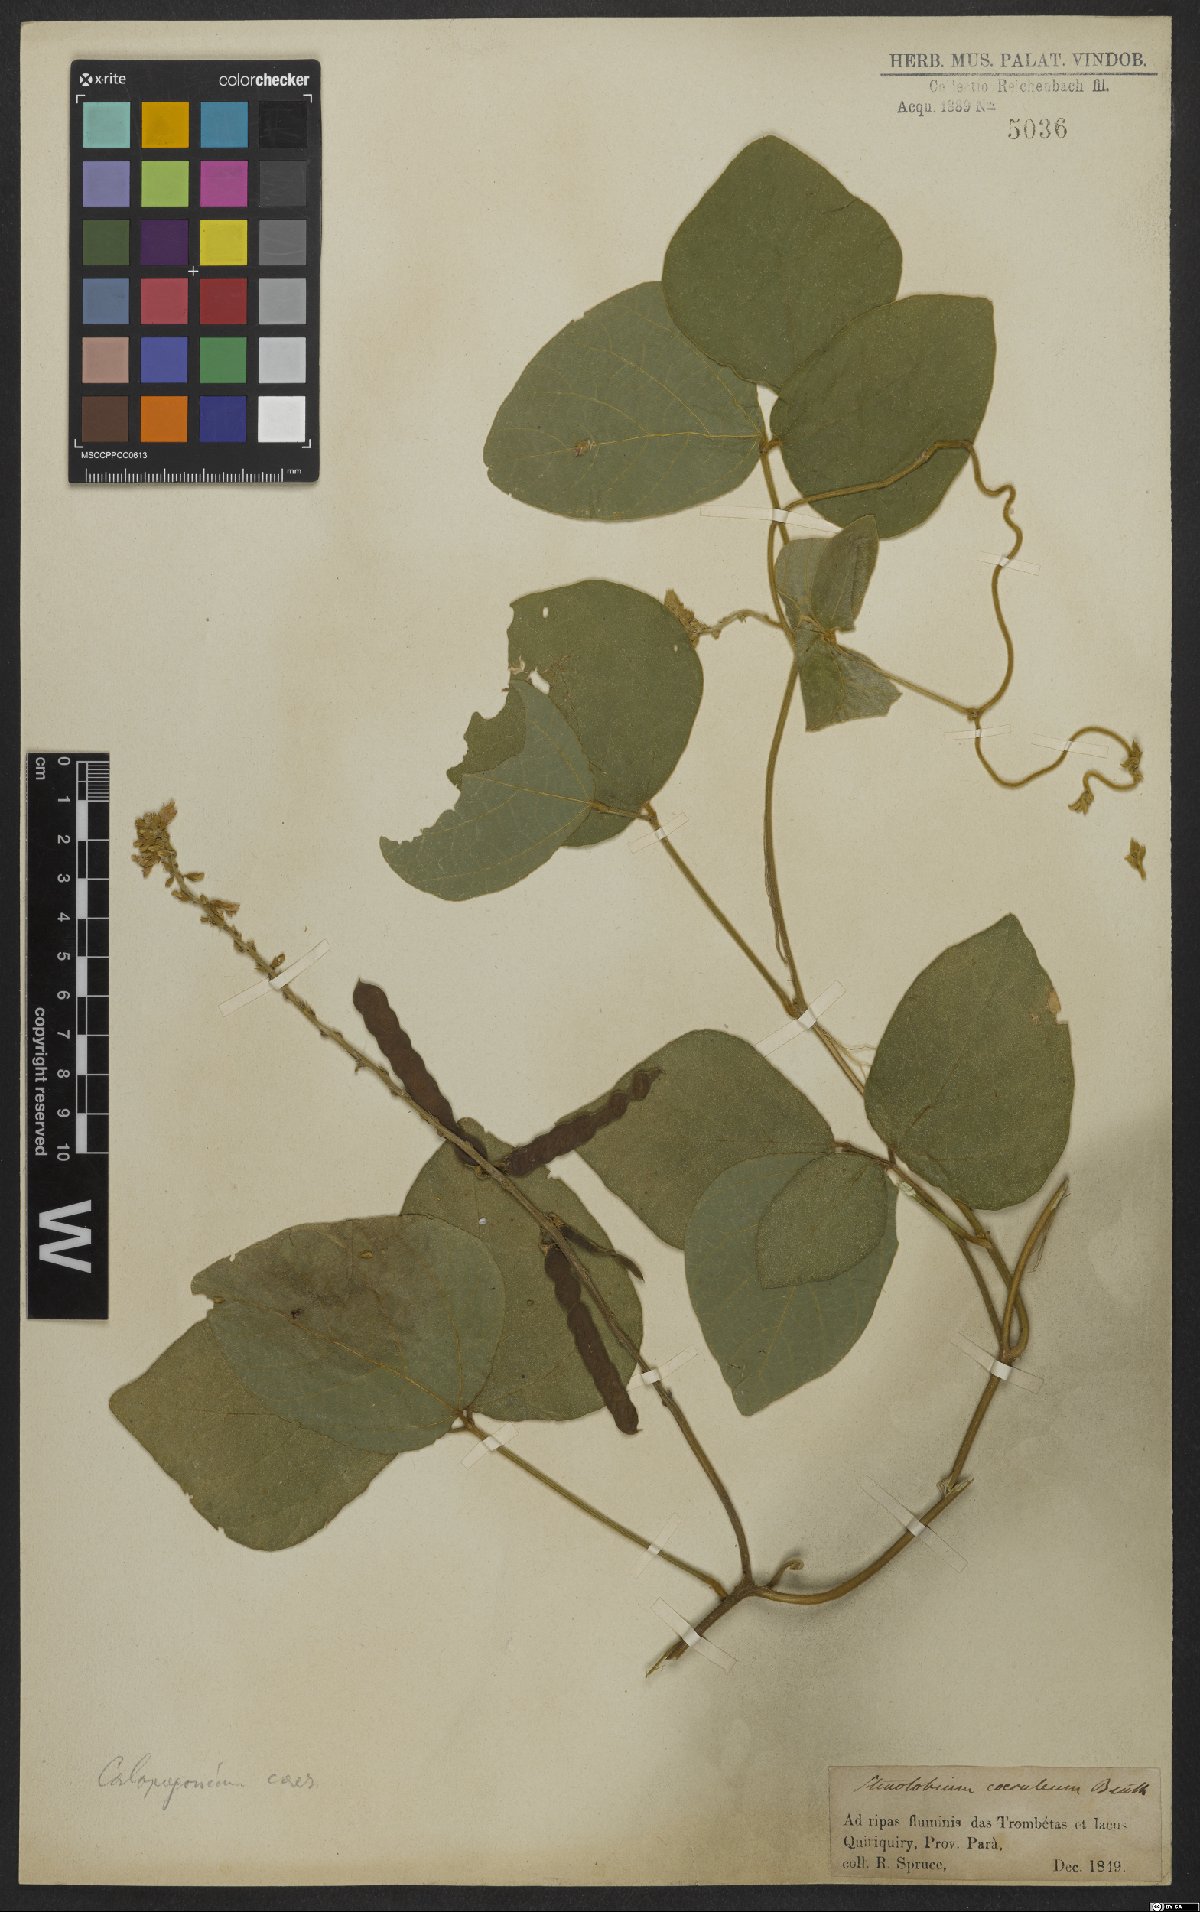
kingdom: Plantae
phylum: Tracheophyta
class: Magnoliopsida
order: Fabales
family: Fabaceae
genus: Calopogonium
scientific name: Calopogonium caeruleum
